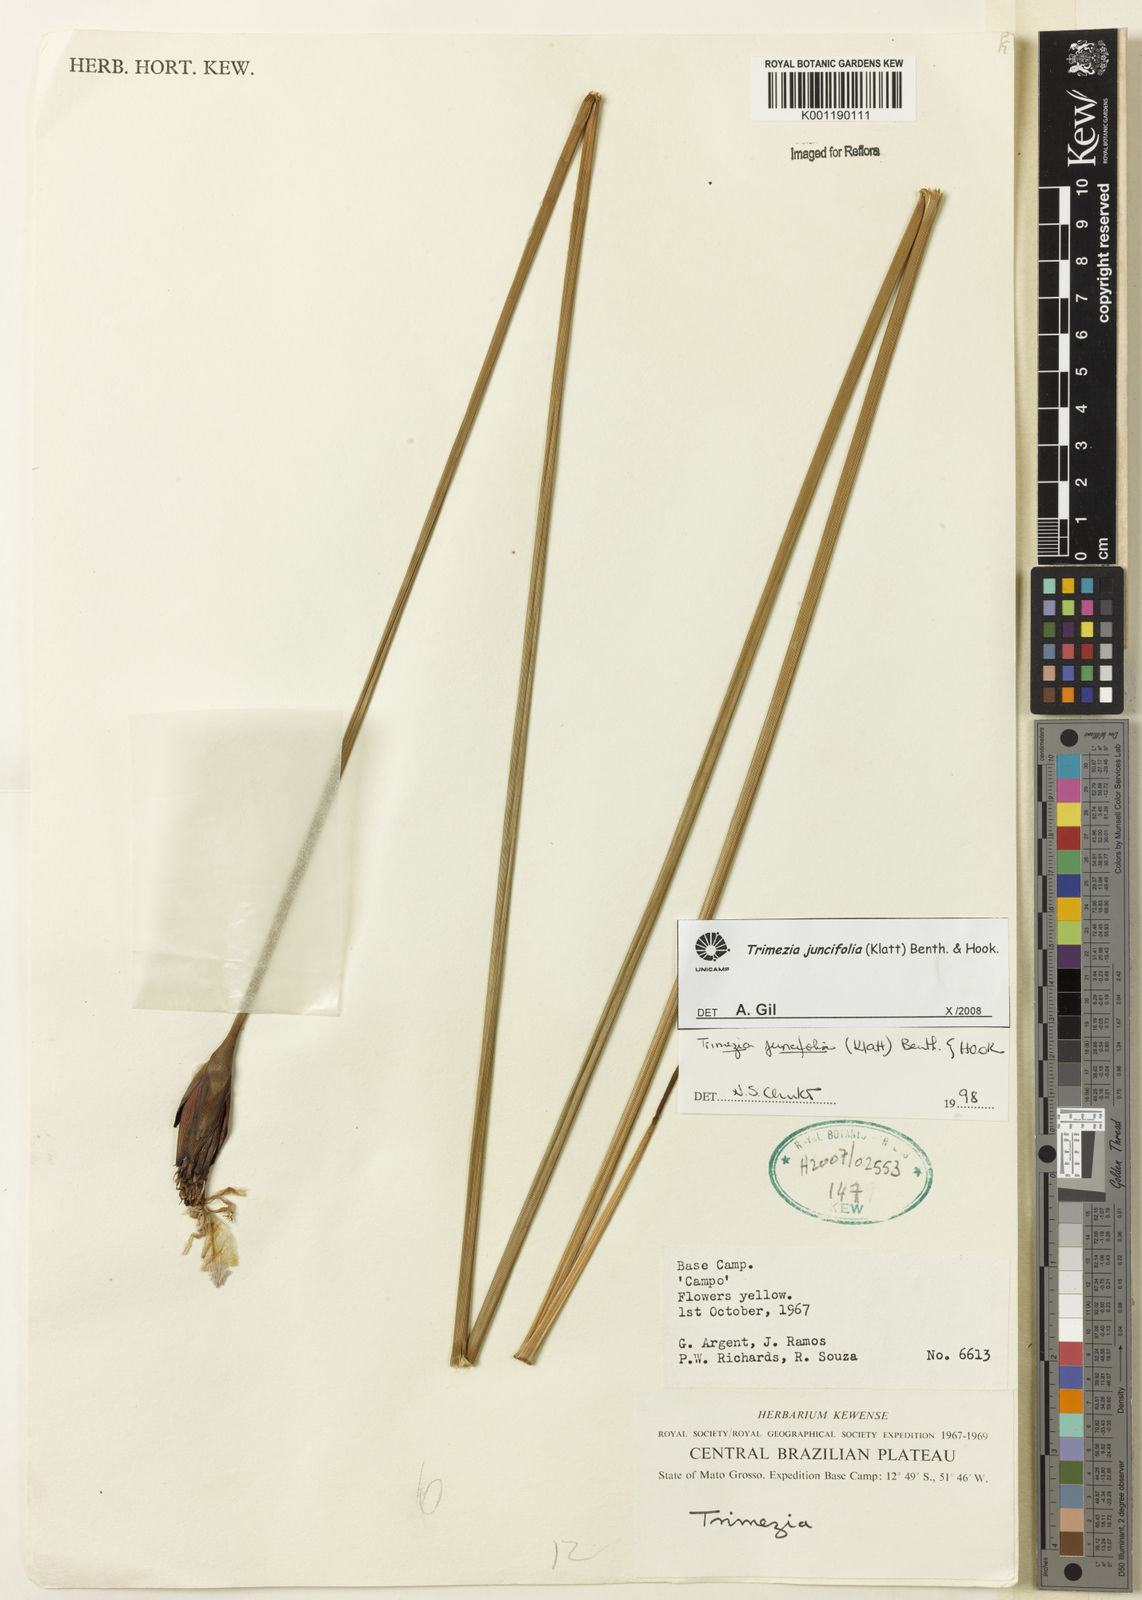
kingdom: Plantae
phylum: Tracheophyta
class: Liliopsida
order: Asparagales
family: Iridaceae
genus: Trimezia
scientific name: Trimezia juncifolia
